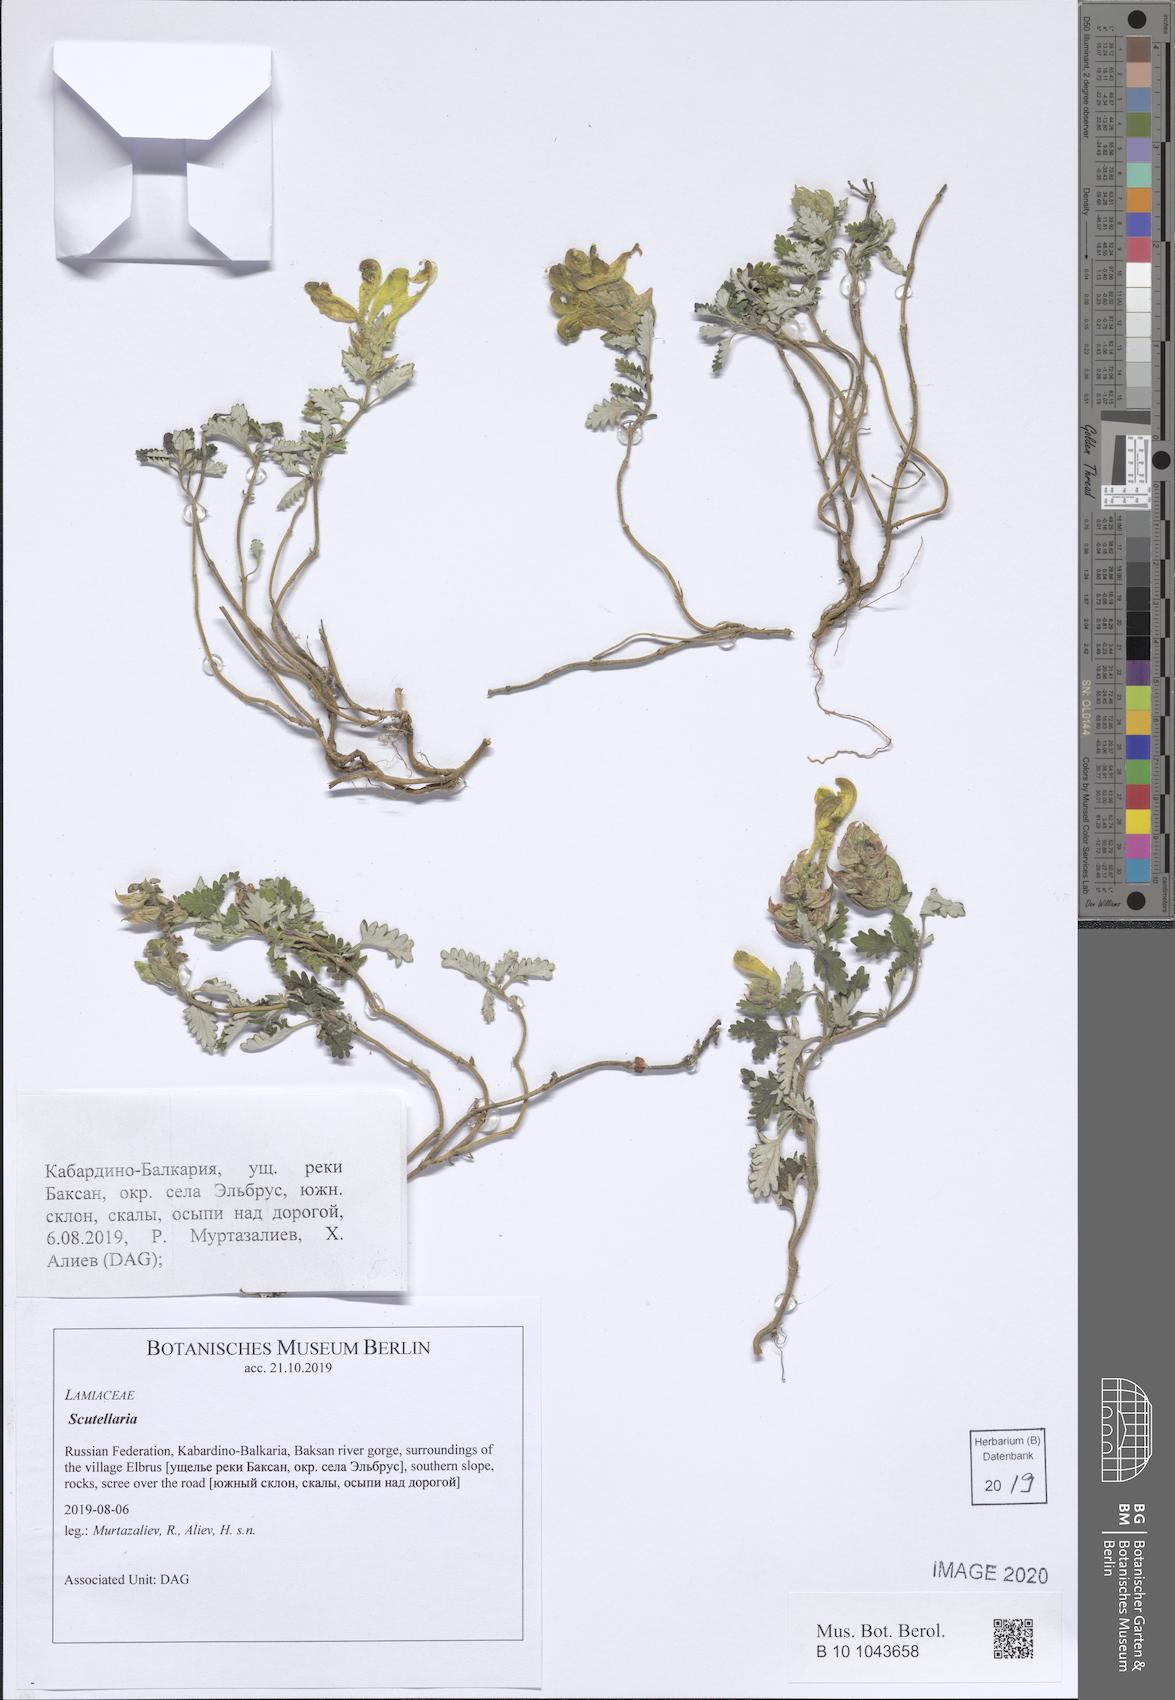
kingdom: Plantae
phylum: Tracheophyta
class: Magnoliopsida
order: Lamiales
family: Lamiaceae
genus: Scutellaria
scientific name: Scutellaria
